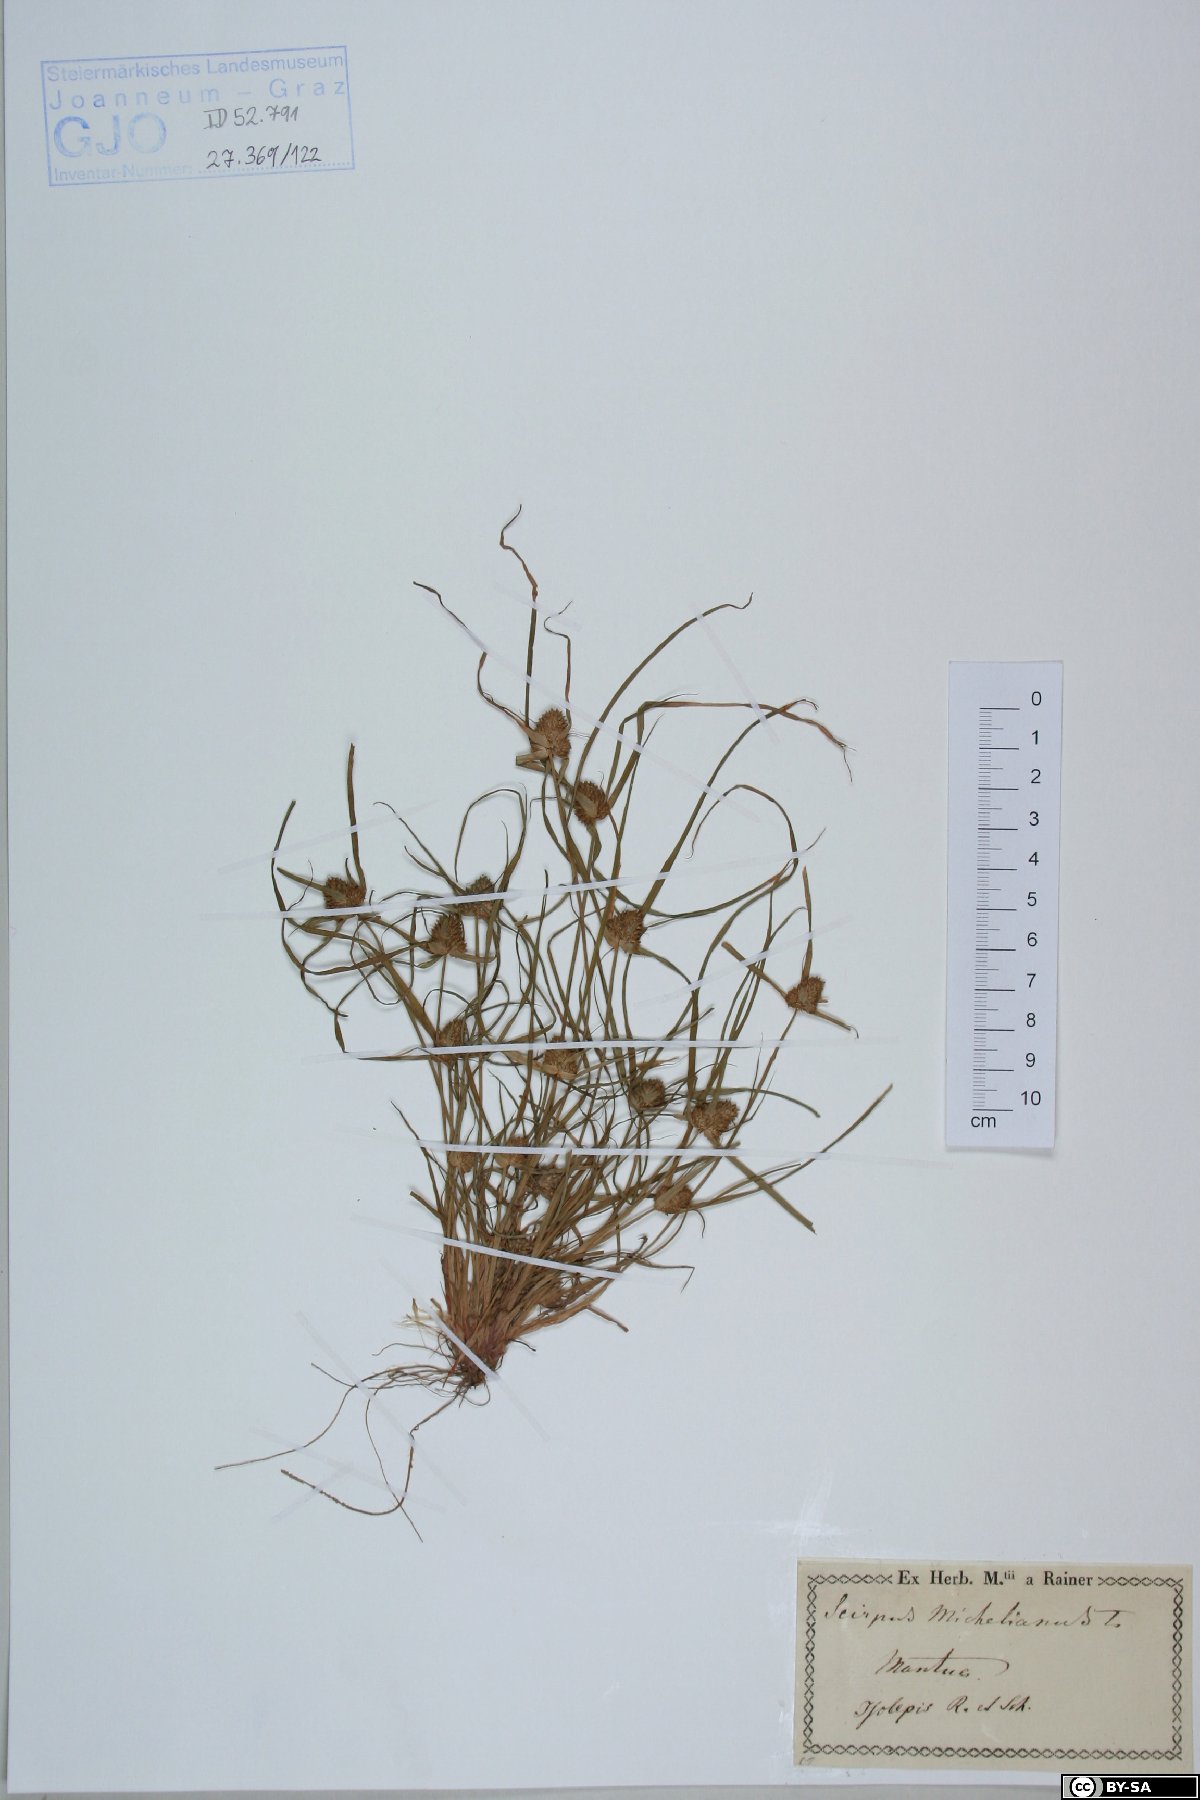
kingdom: Plantae
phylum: Tracheophyta
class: Liliopsida
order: Poales
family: Cyperaceae
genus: Cyperus
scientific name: Cyperus michelianus
